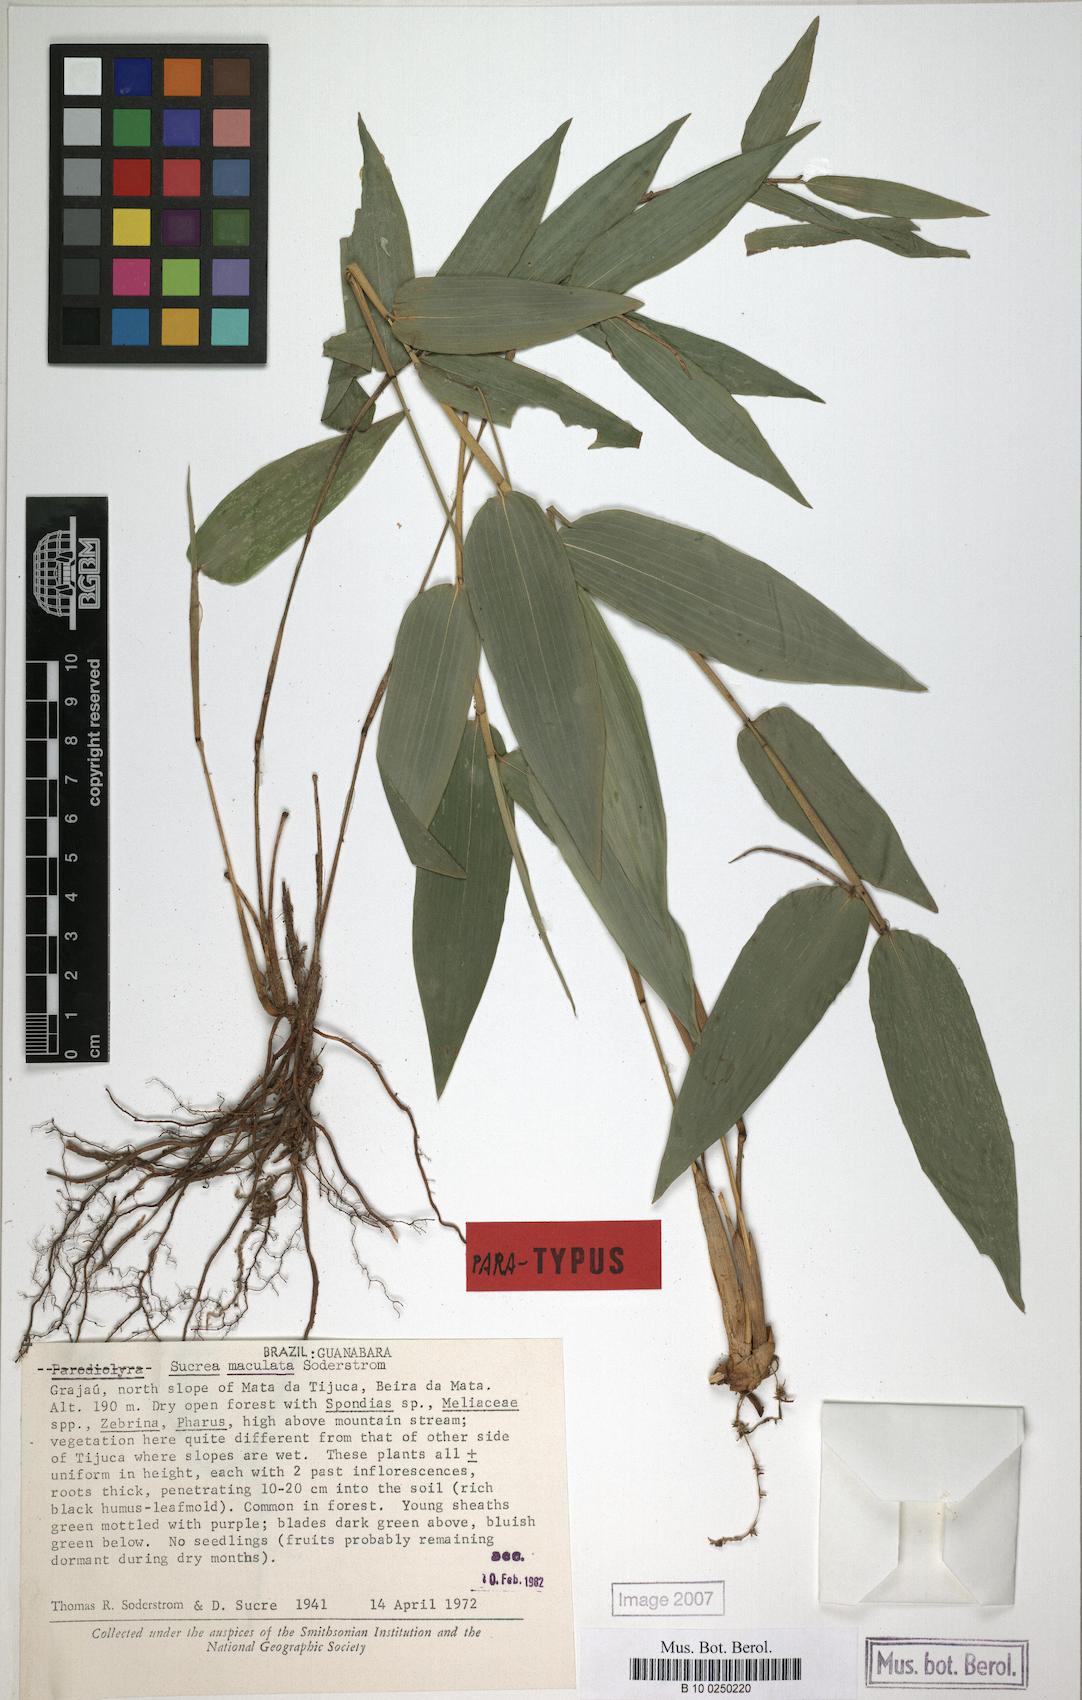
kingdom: Plantae
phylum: Tracheophyta
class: Liliopsida
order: Poales
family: Poaceae
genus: Raddia
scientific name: Raddia maculata
